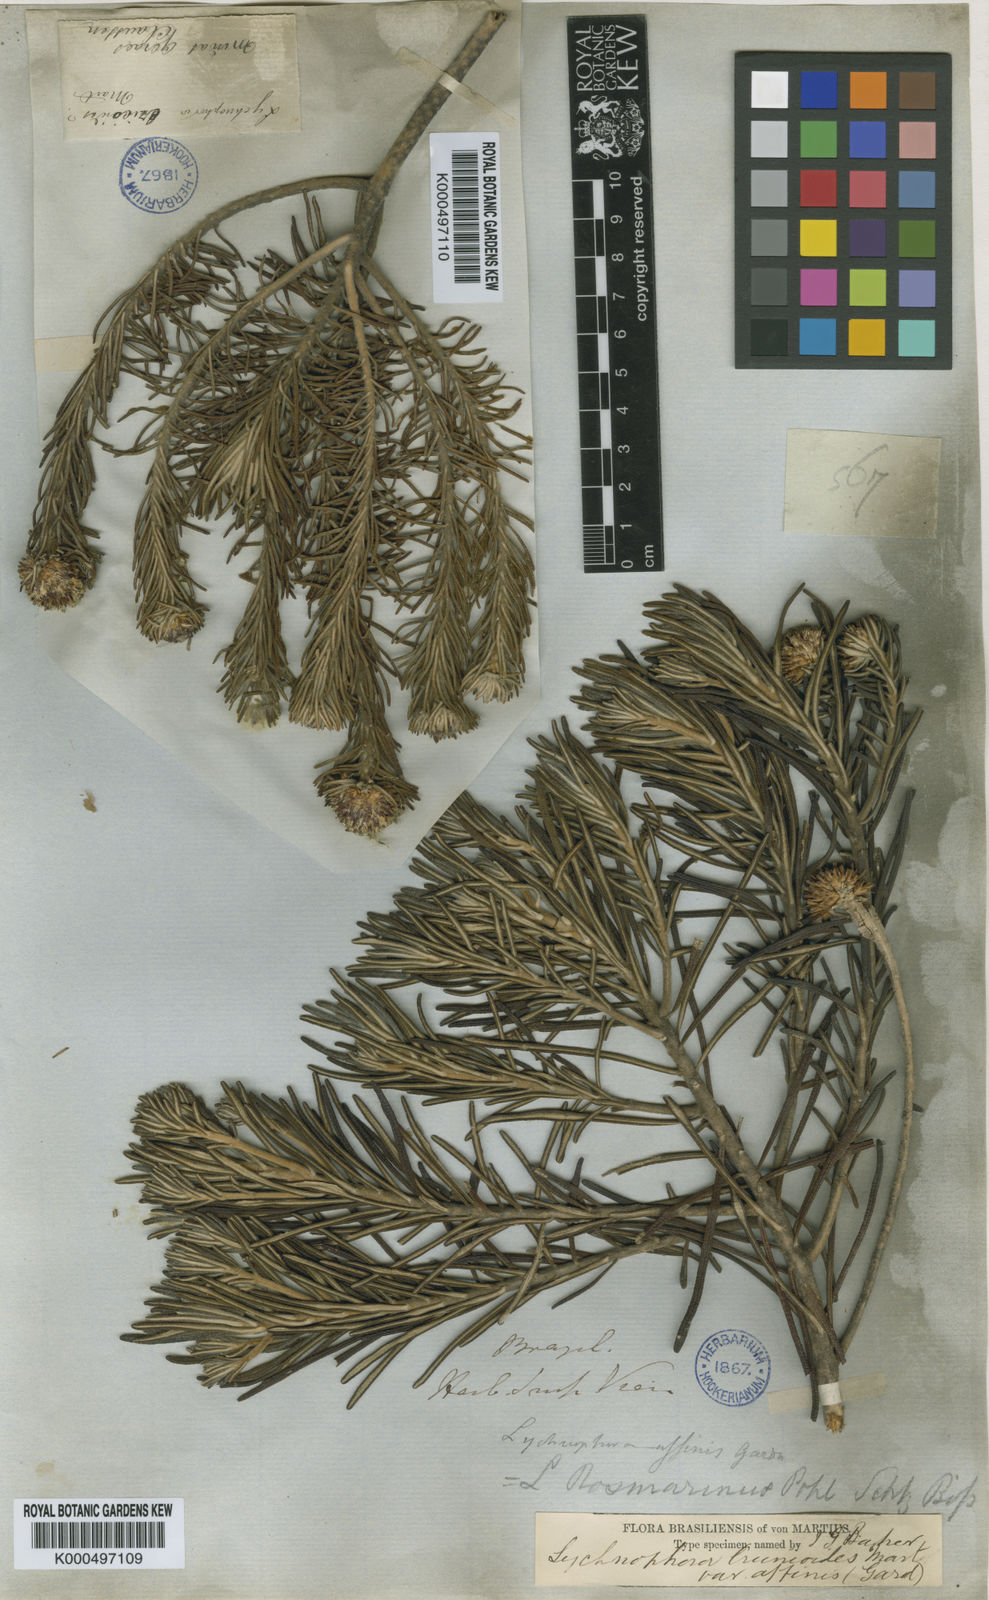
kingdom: Plantae
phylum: Tracheophyta
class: Magnoliopsida
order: Asterales
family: Asteraceae
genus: Lychnophora
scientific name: Lychnophora ericoides
